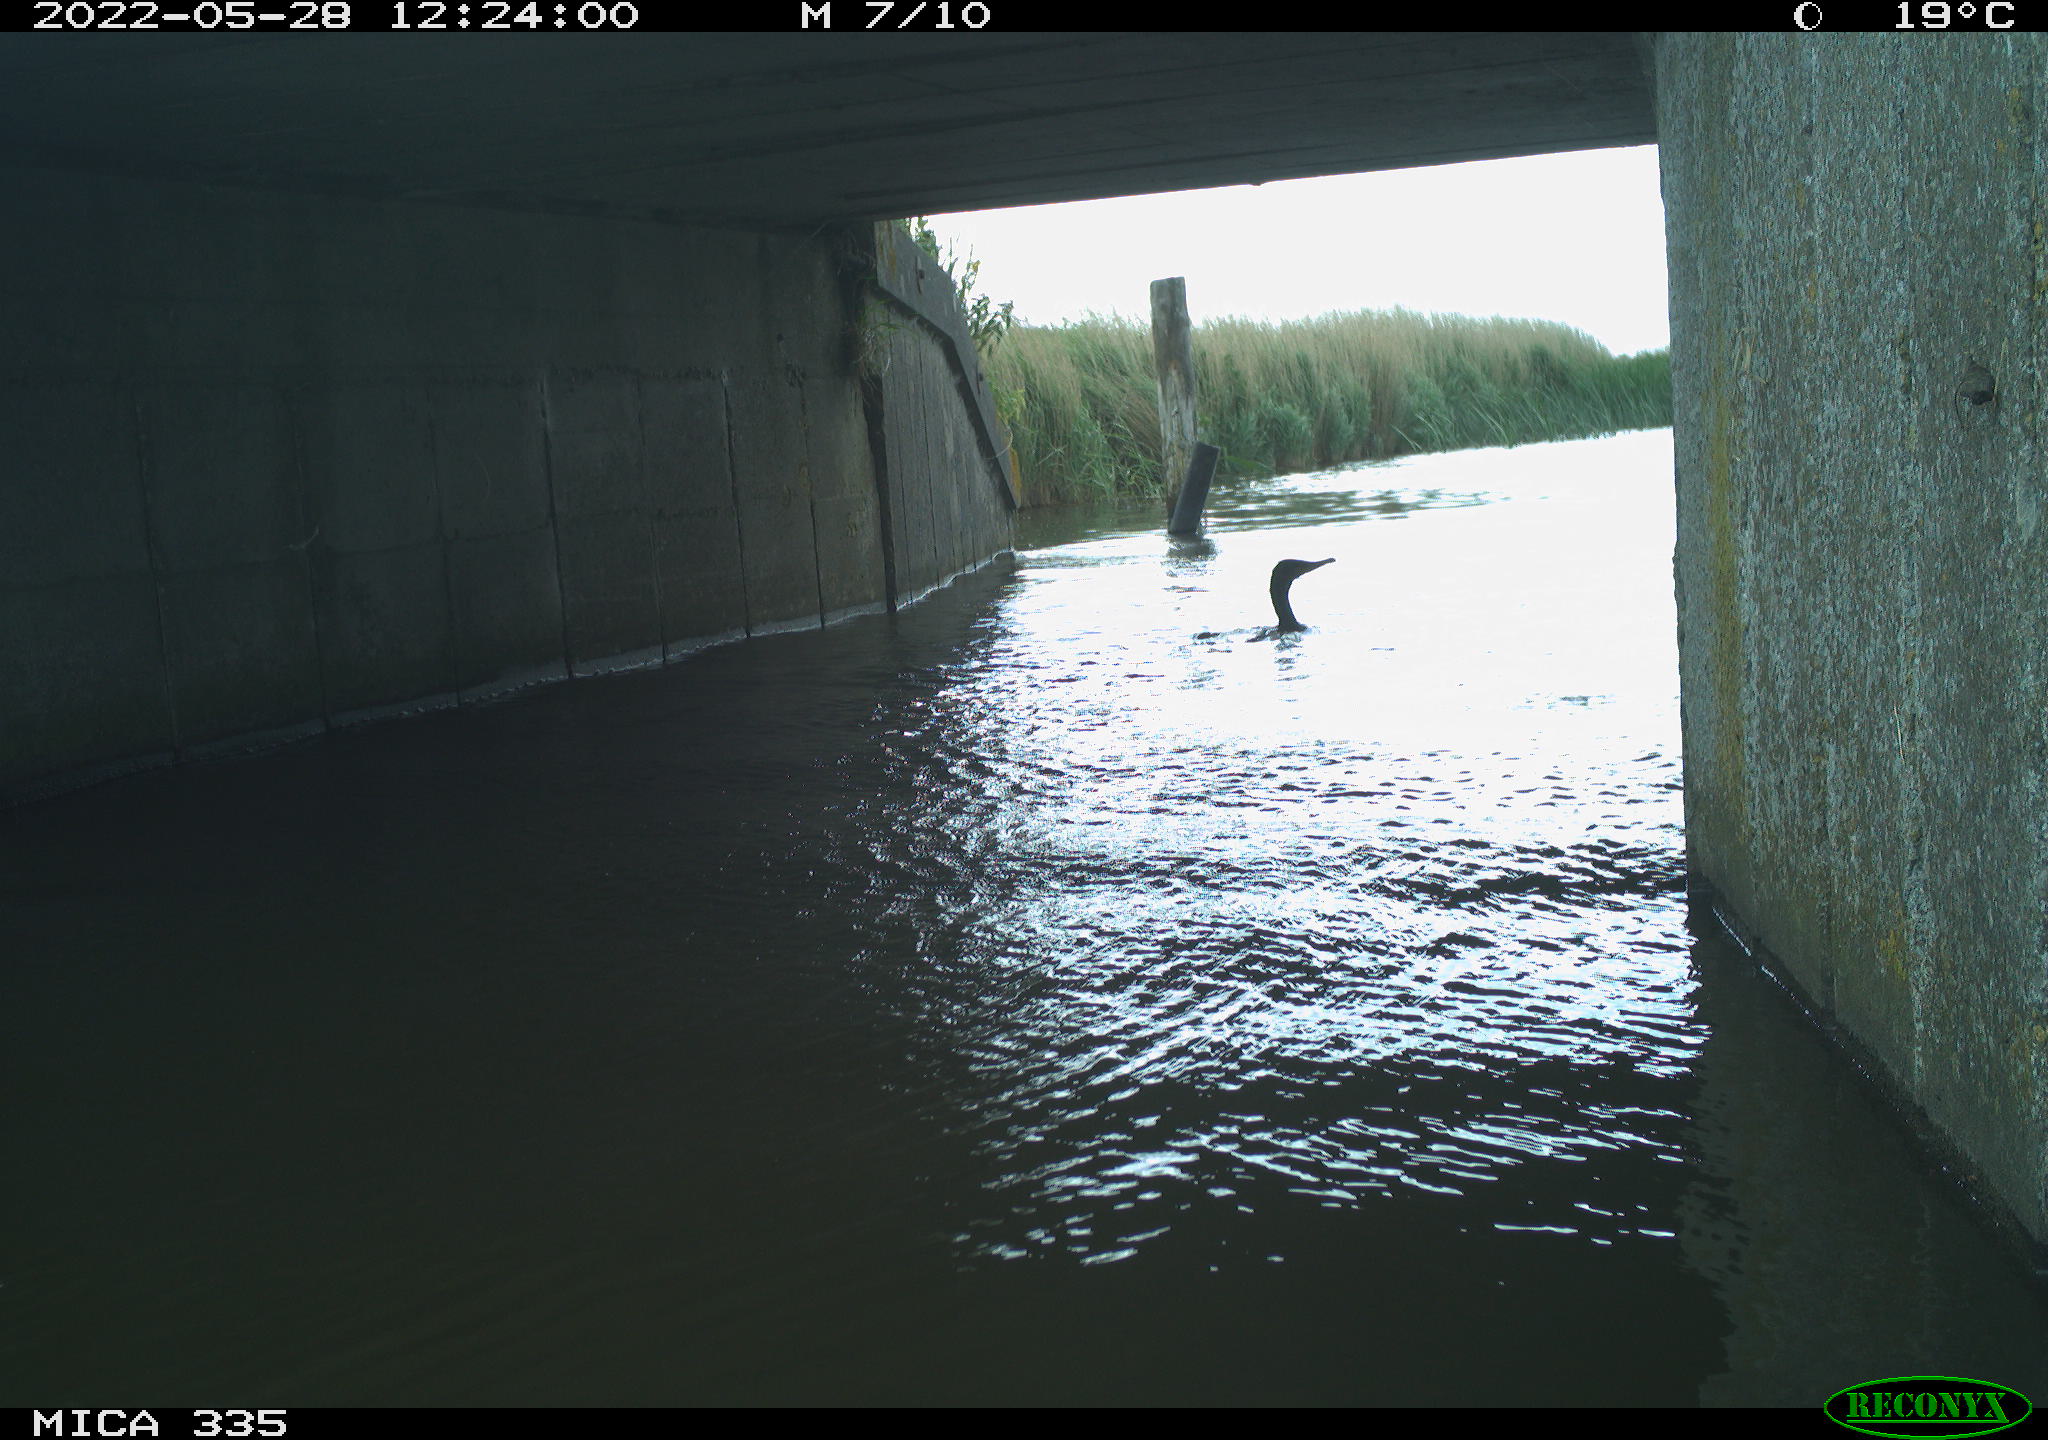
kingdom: Animalia
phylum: Chordata
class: Aves
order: Suliformes
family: Phalacrocoracidae
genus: Phalacrocorax
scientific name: Phalacrocorax carbo
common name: Great cormorant
